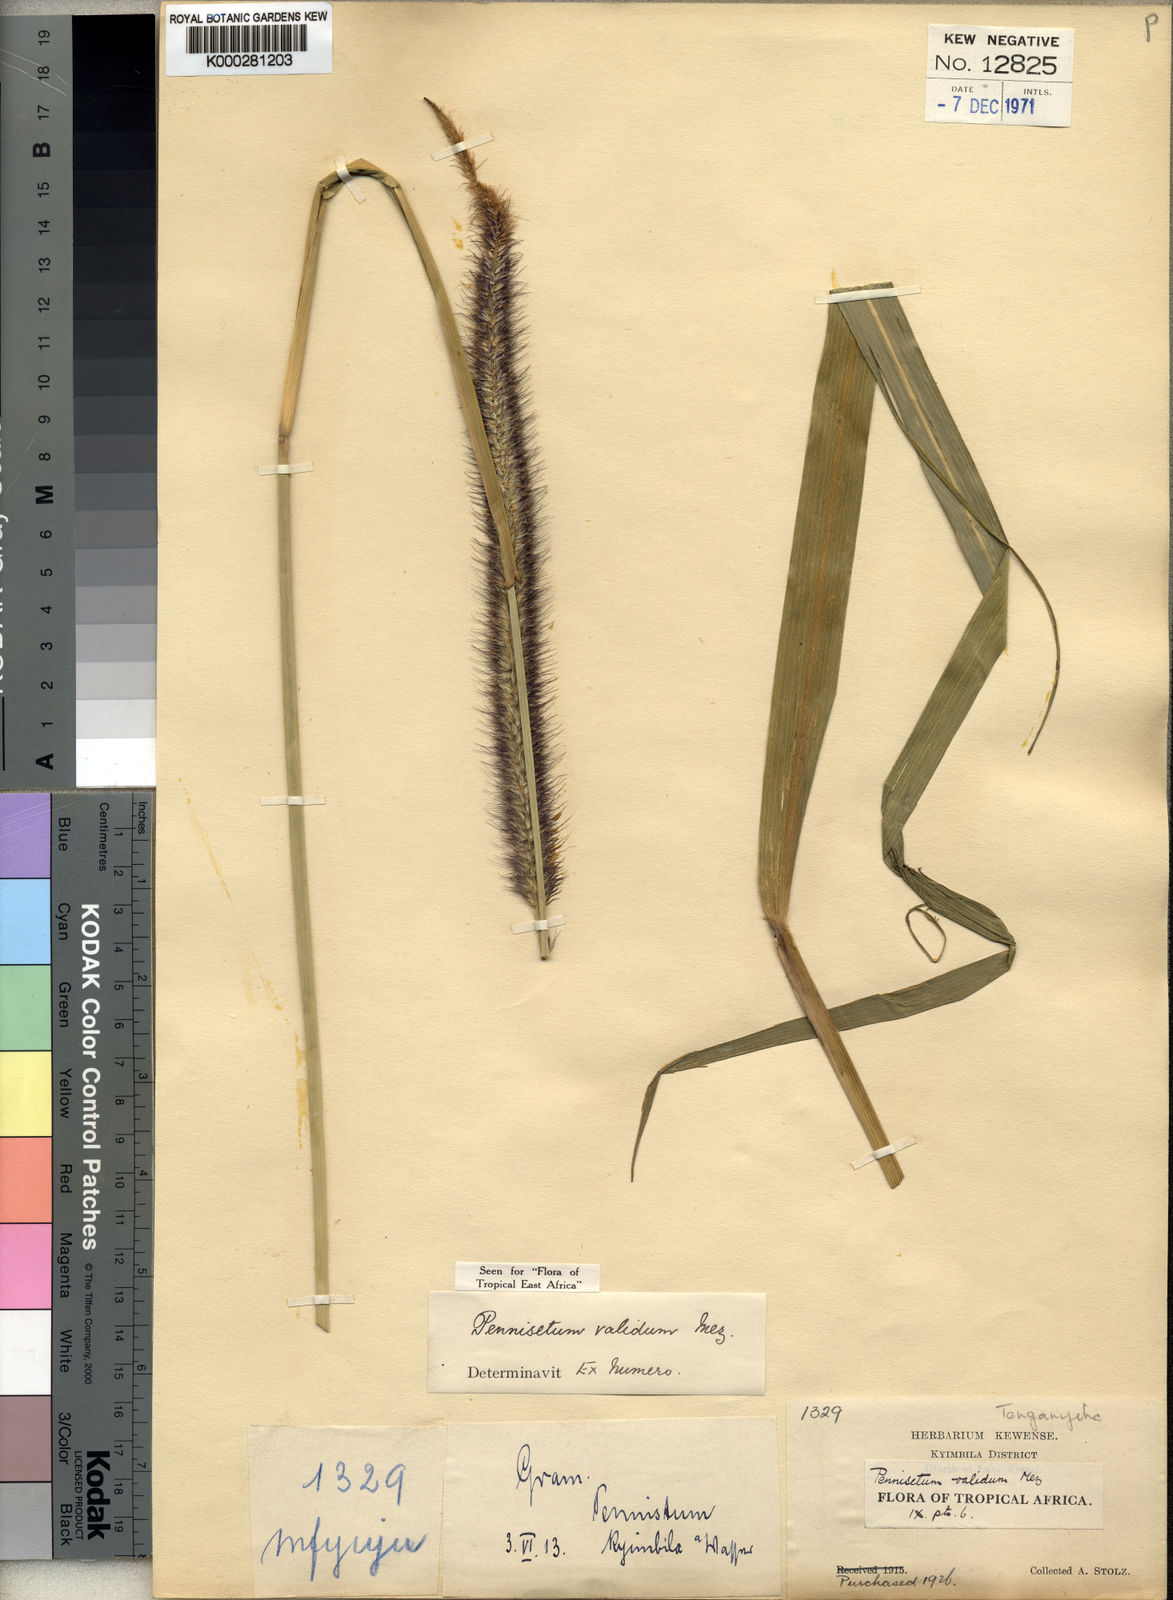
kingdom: Plantae
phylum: Tracheophyta
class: Liliopsida
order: Poales
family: Poaceae
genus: Cenchrus
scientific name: Cenchrus caudatus
